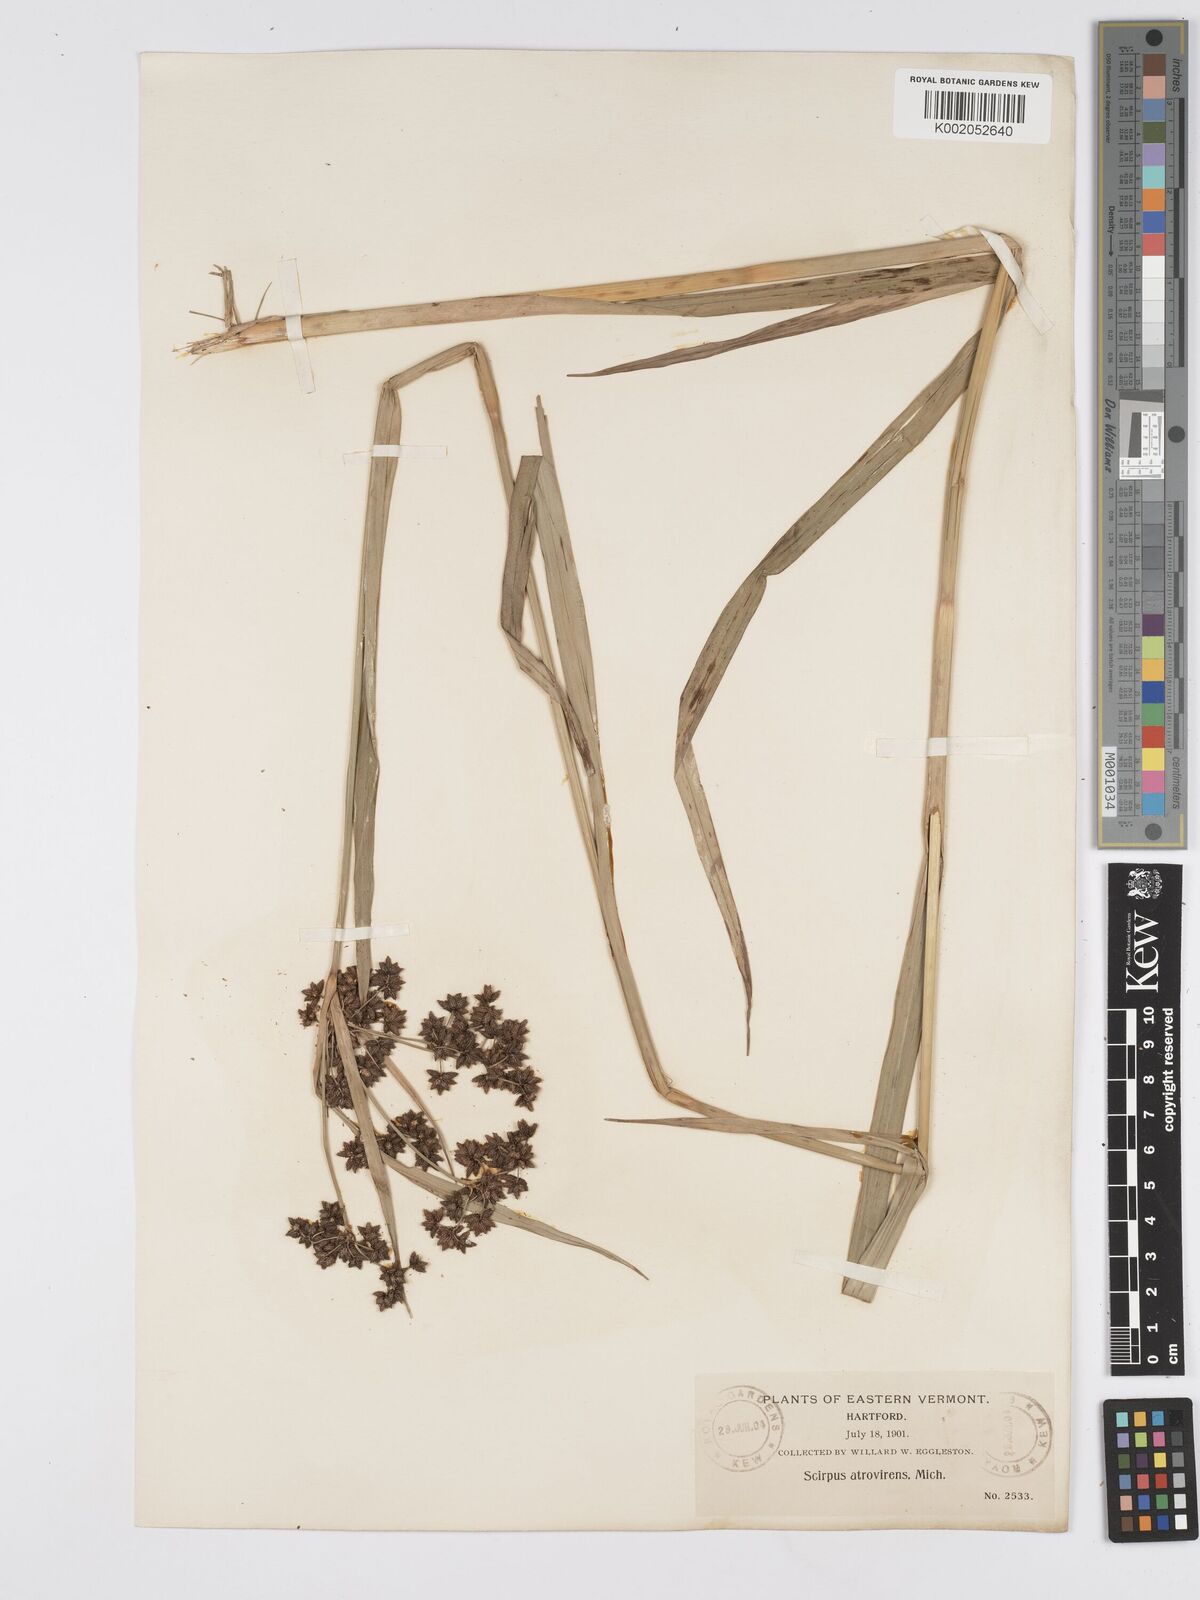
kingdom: Plantae
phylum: Tracheophyta
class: Liliopsida
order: Poales
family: Cyperaceae
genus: Scirpus
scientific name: Scirpus atrovirens
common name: Black bulrush
